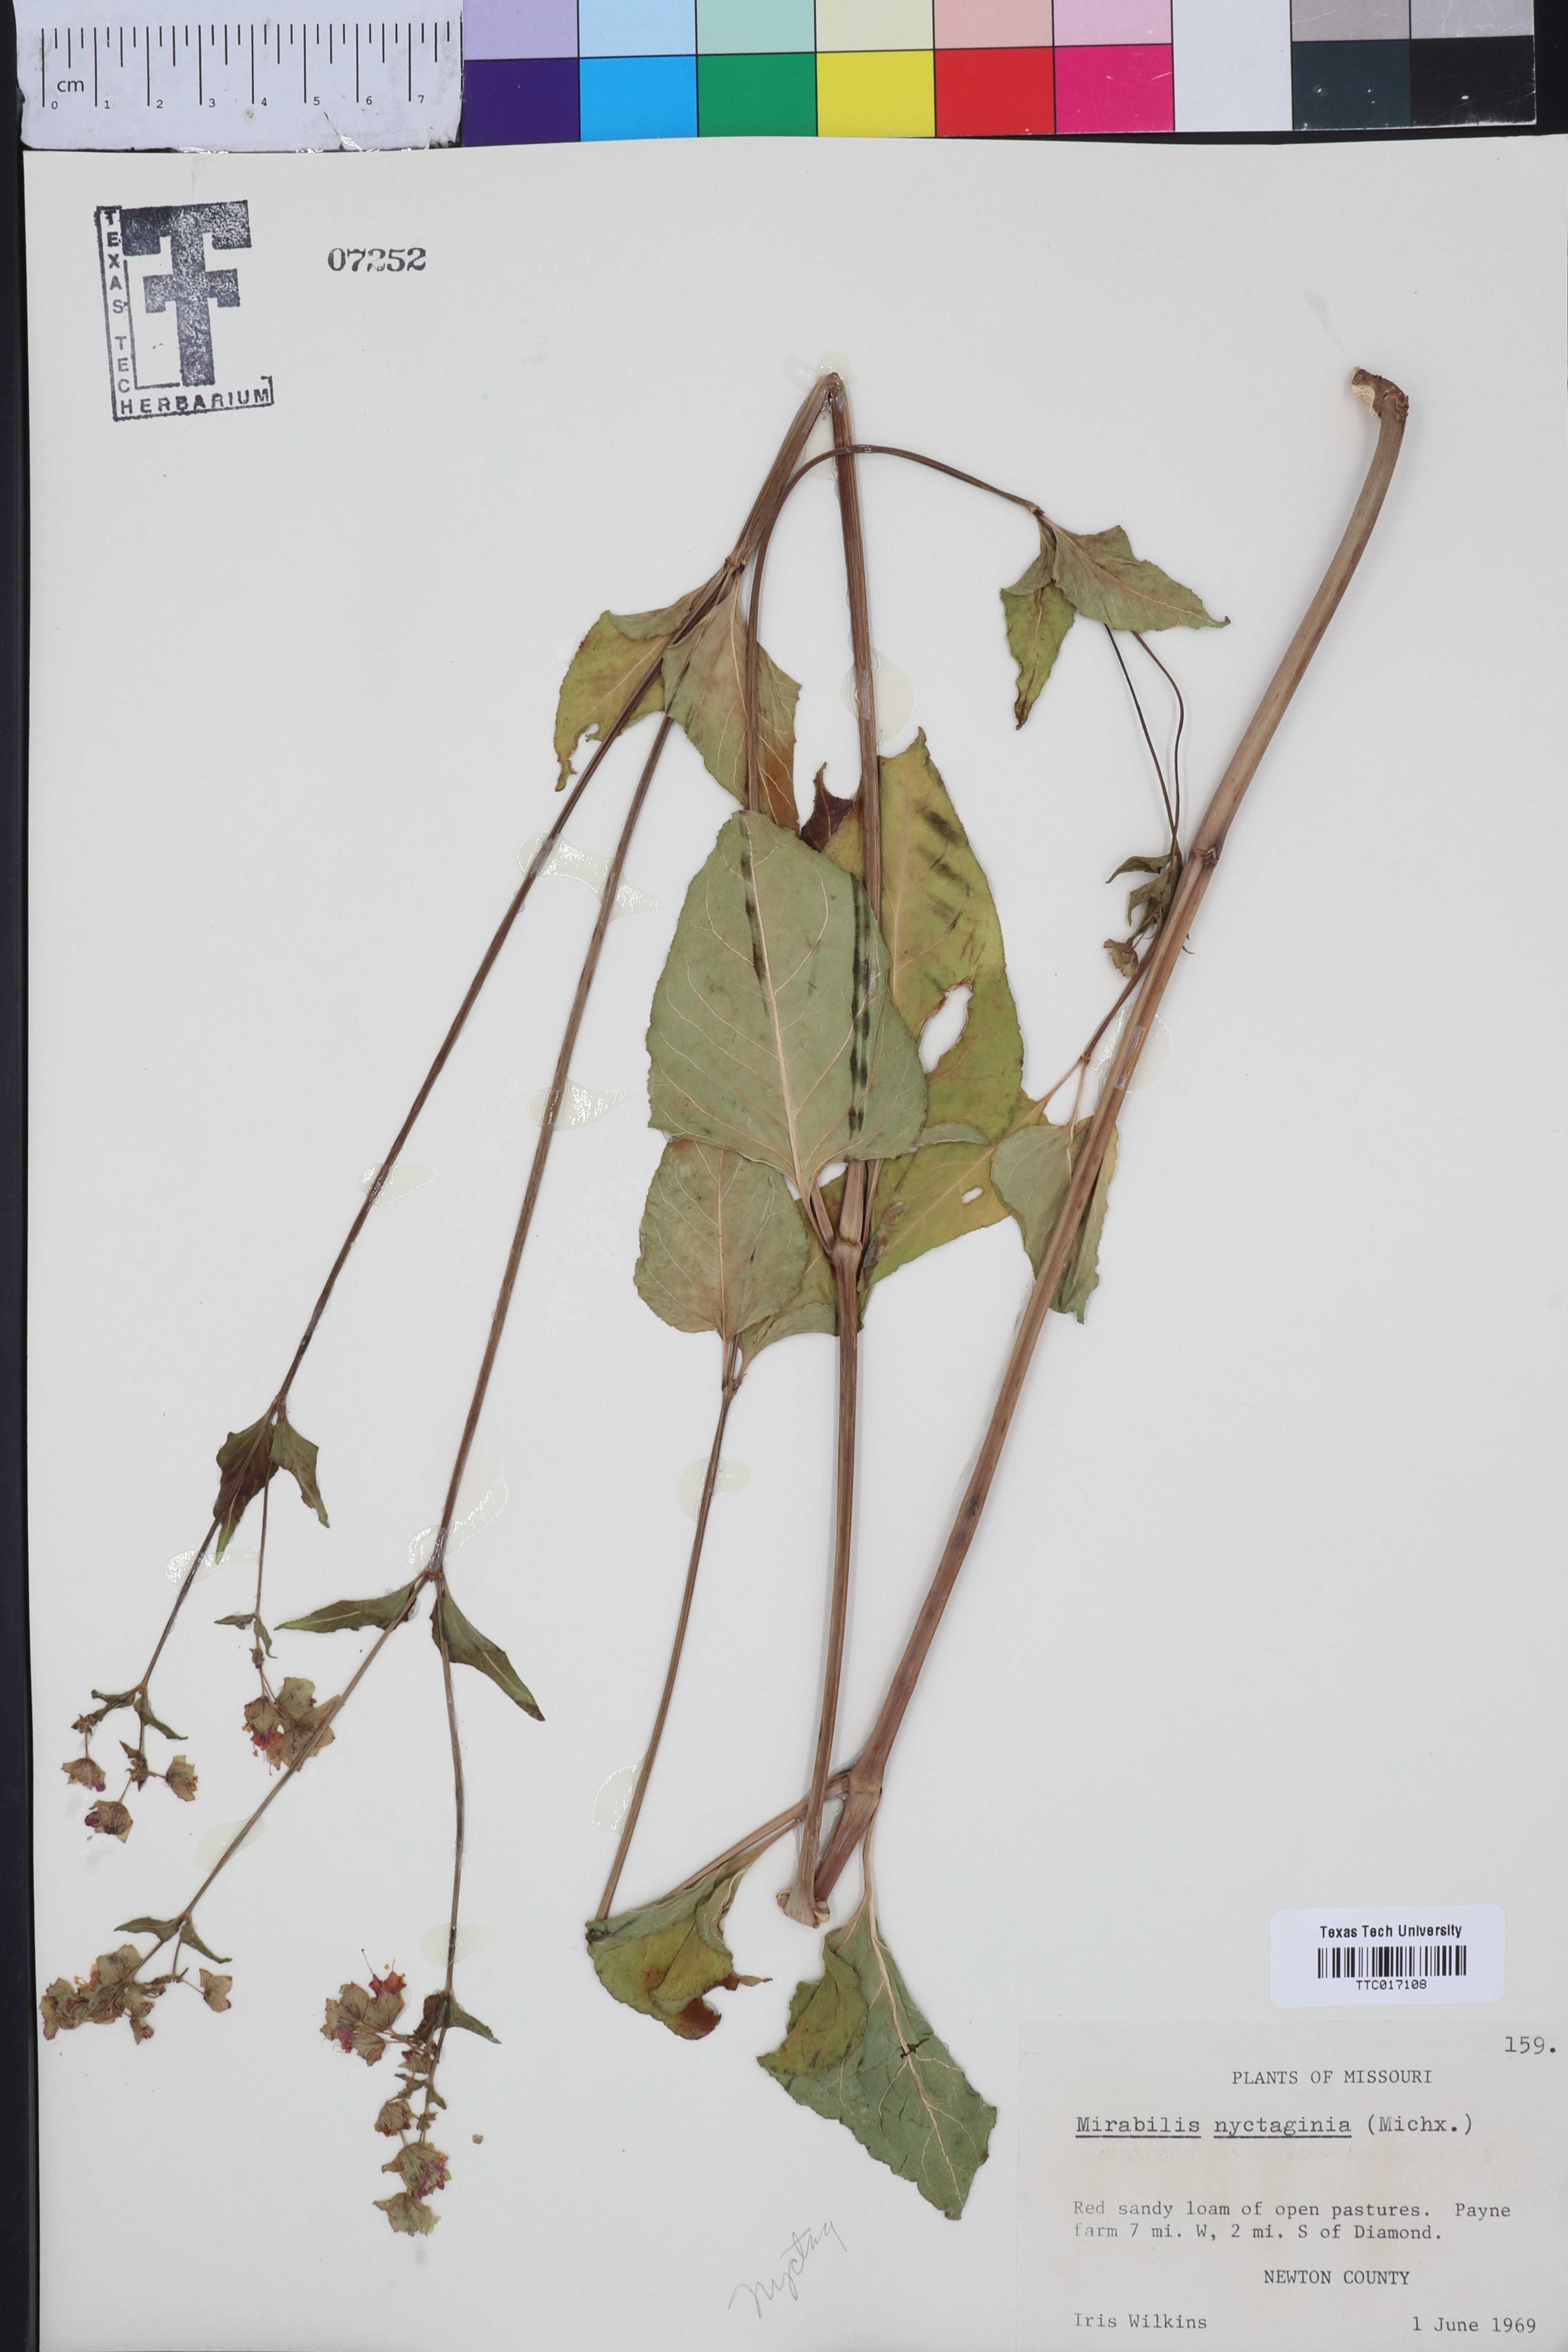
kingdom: Plantae
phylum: Tracheophyta
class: Magnoliopsida
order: Caryophyllales
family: Nyctaginaceae
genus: Mirabilis
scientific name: Mirabilis nyctaginea
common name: Umbrella wort
